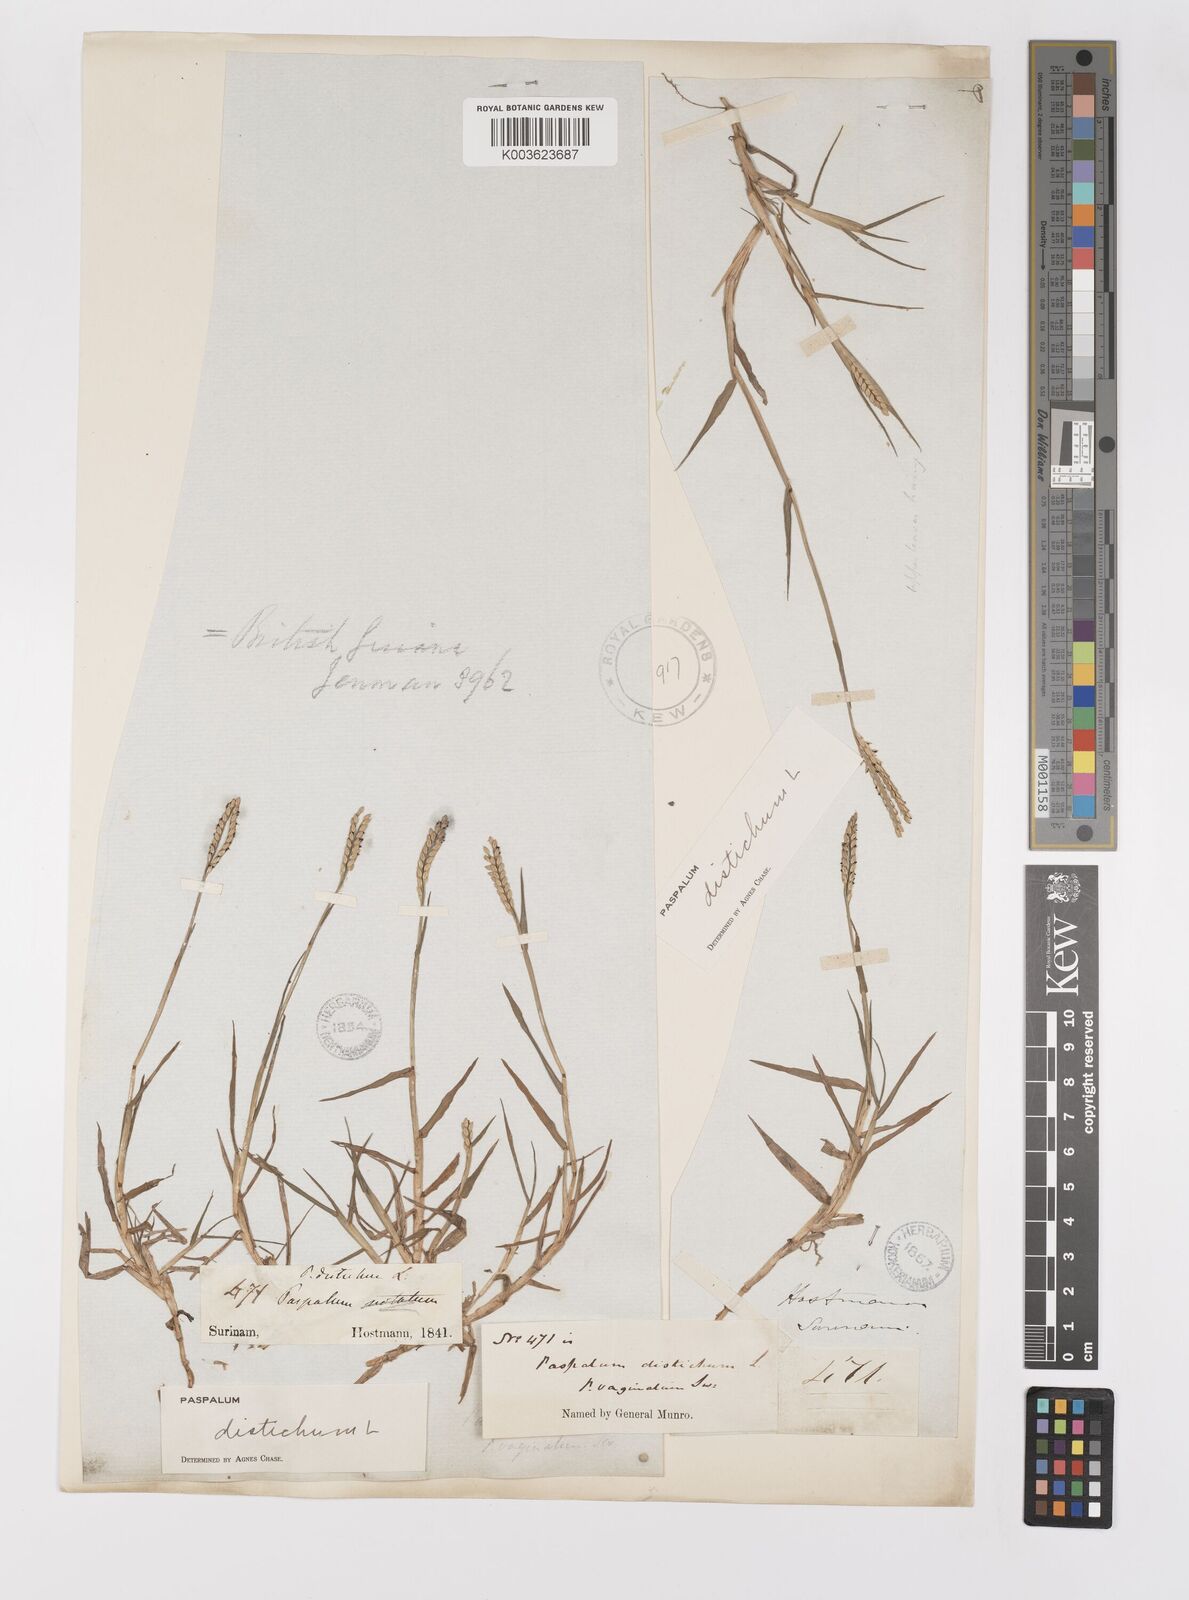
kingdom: Plantae
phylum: Tracheophyta
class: Liliopsida
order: Poales
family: Poaceae
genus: Paspalum
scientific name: Paspalum distichum
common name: Knotgrass
